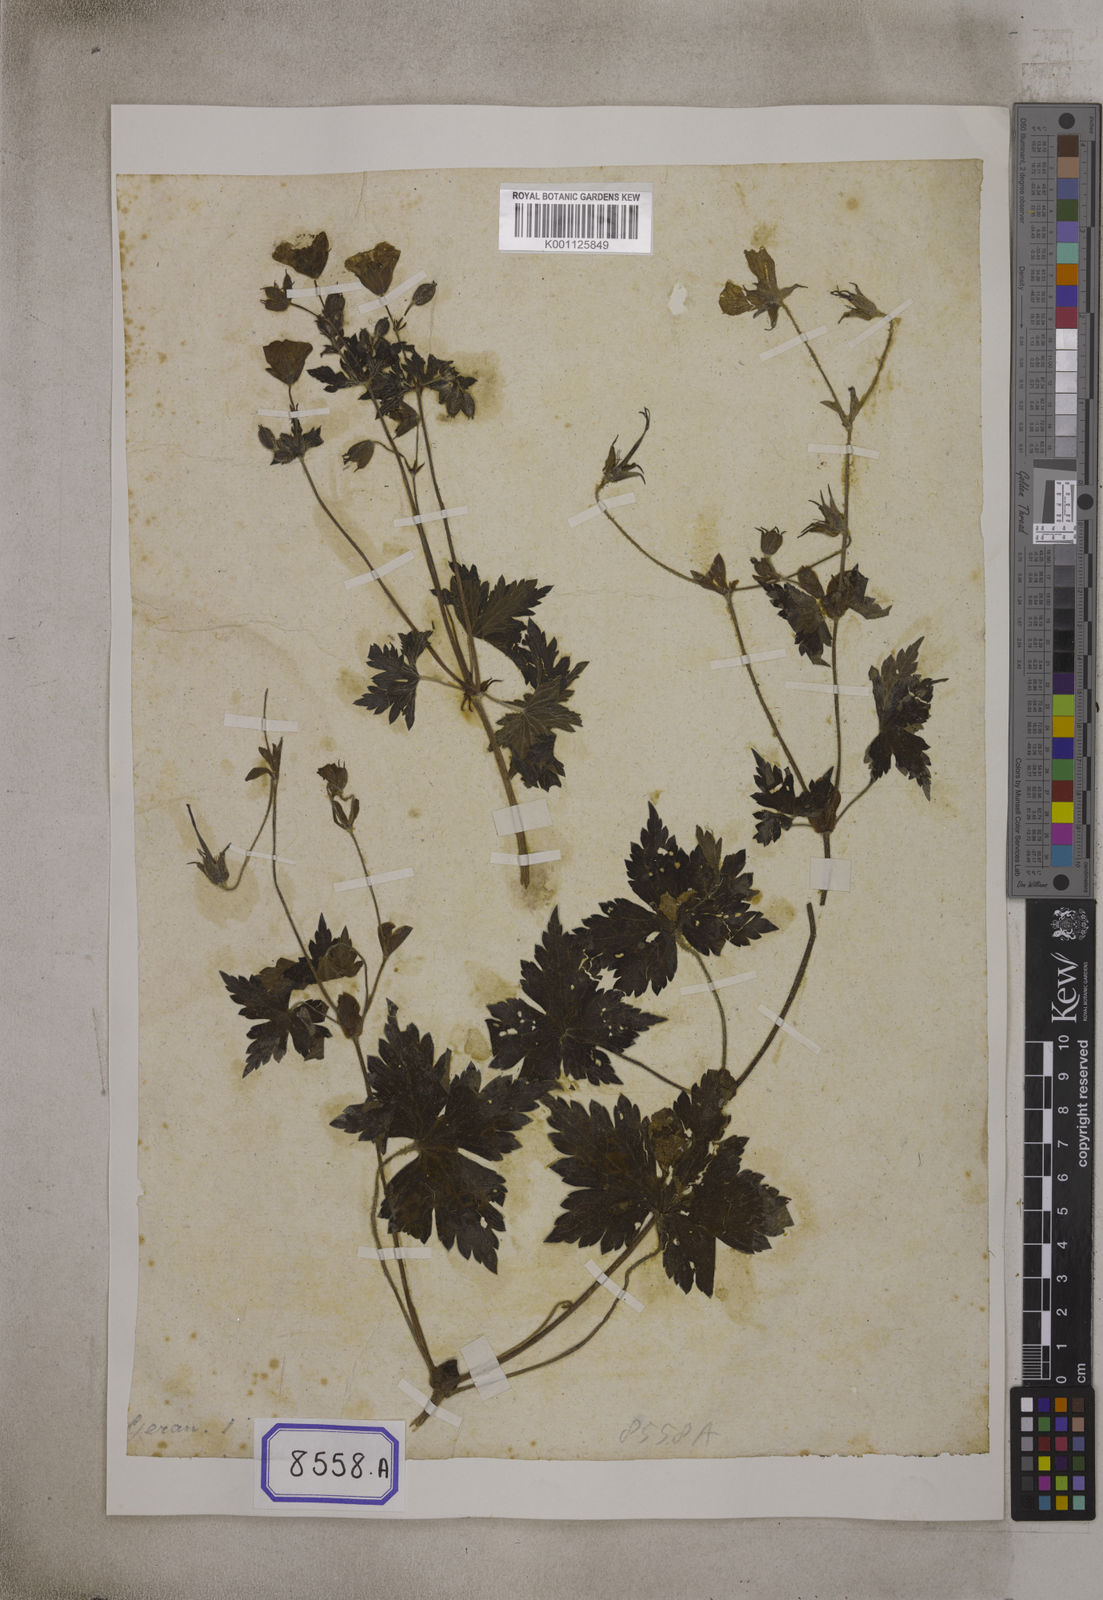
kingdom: Plantae
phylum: Tracheophyta
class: Magnoliopsida
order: Geraniales
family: Geraniaceae
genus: Geranium
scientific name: Geranium
